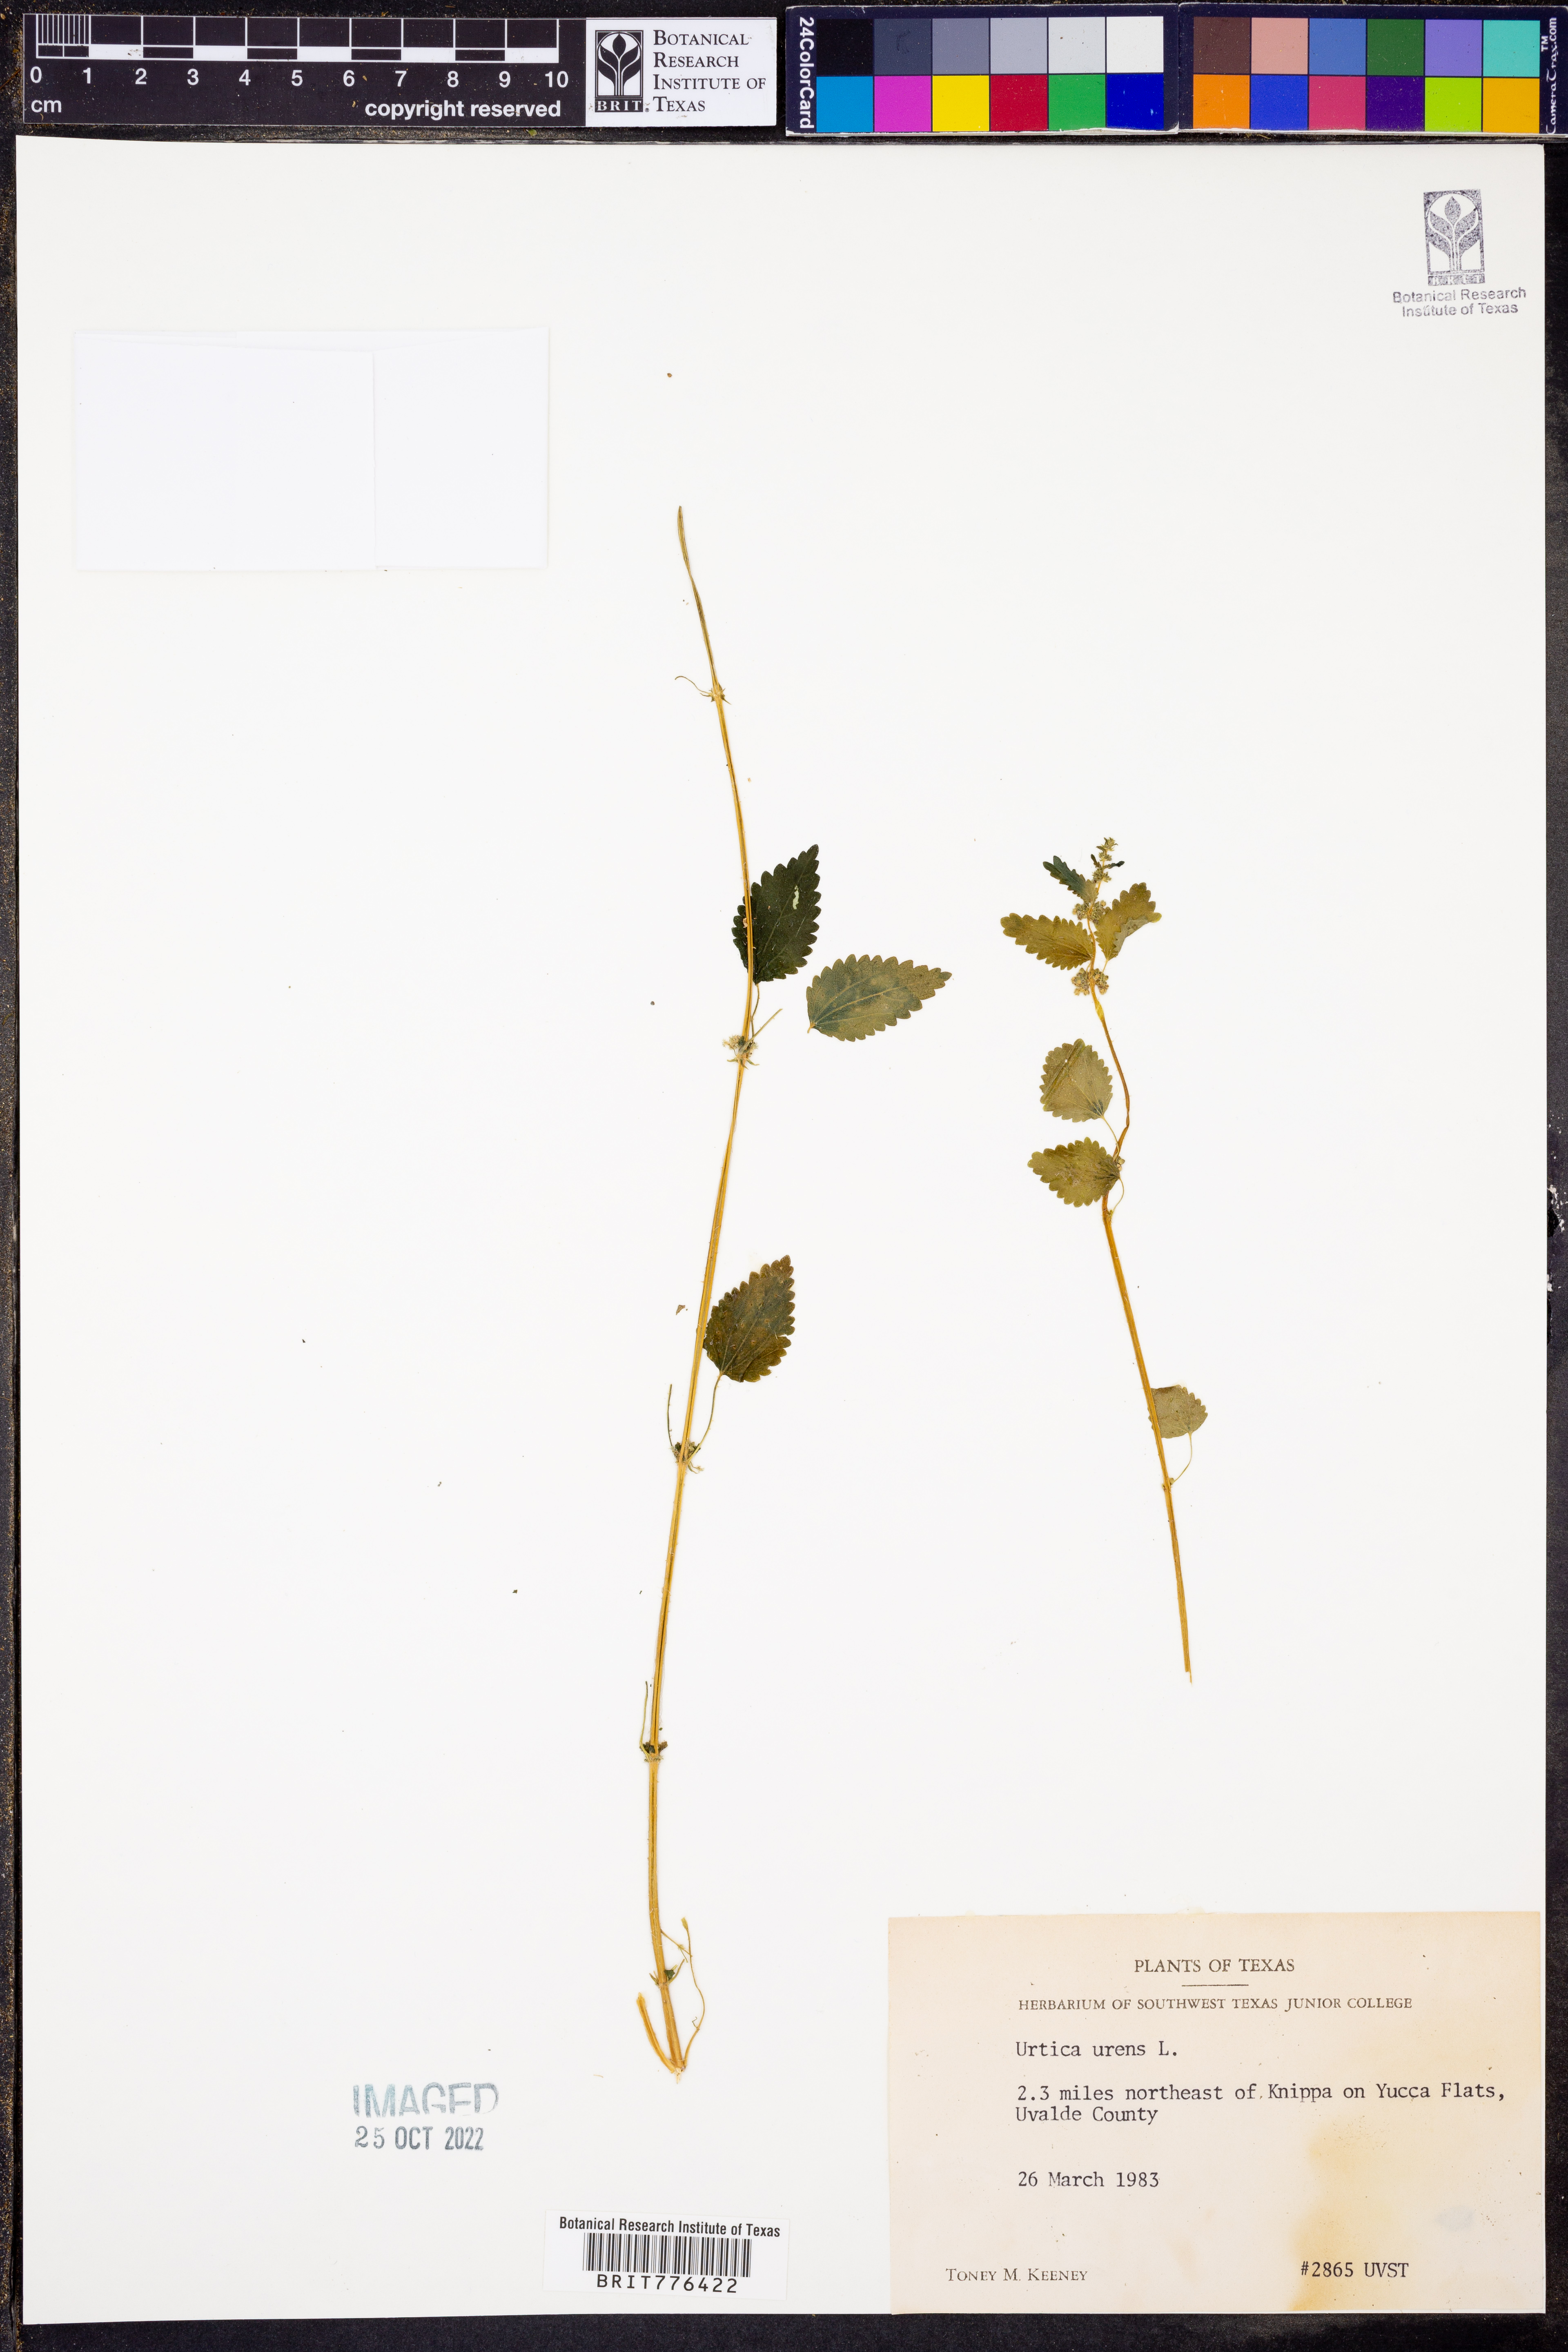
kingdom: Plantae
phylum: Tracheophyta
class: Magnoliopsida
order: Rosales
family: Urticaceae
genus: Urtica
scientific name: Urtica urens
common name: Dwarf nettle
